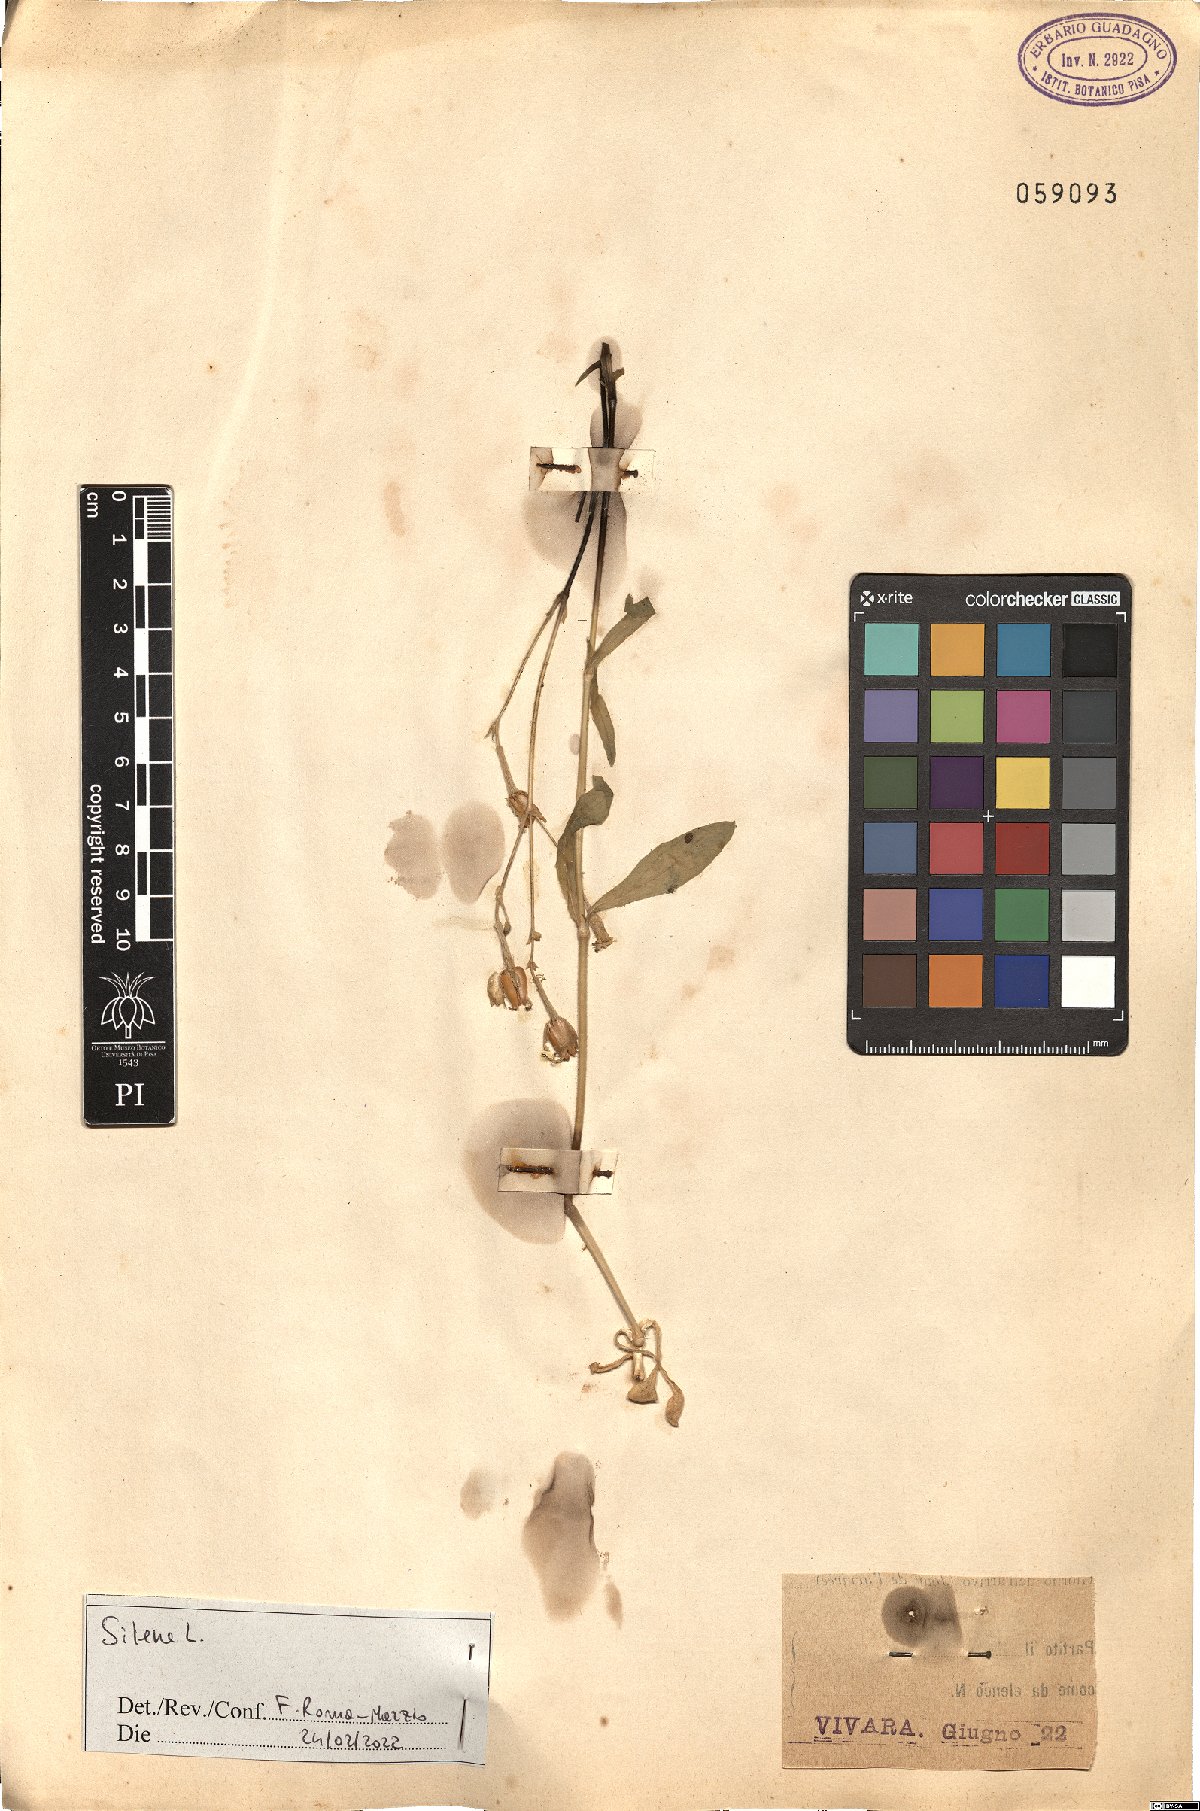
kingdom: Plantae
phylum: Tracheophyta
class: Magnoliopsida
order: Caryophyllales
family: Caryophyllaceae
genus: Silene
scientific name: Silene
